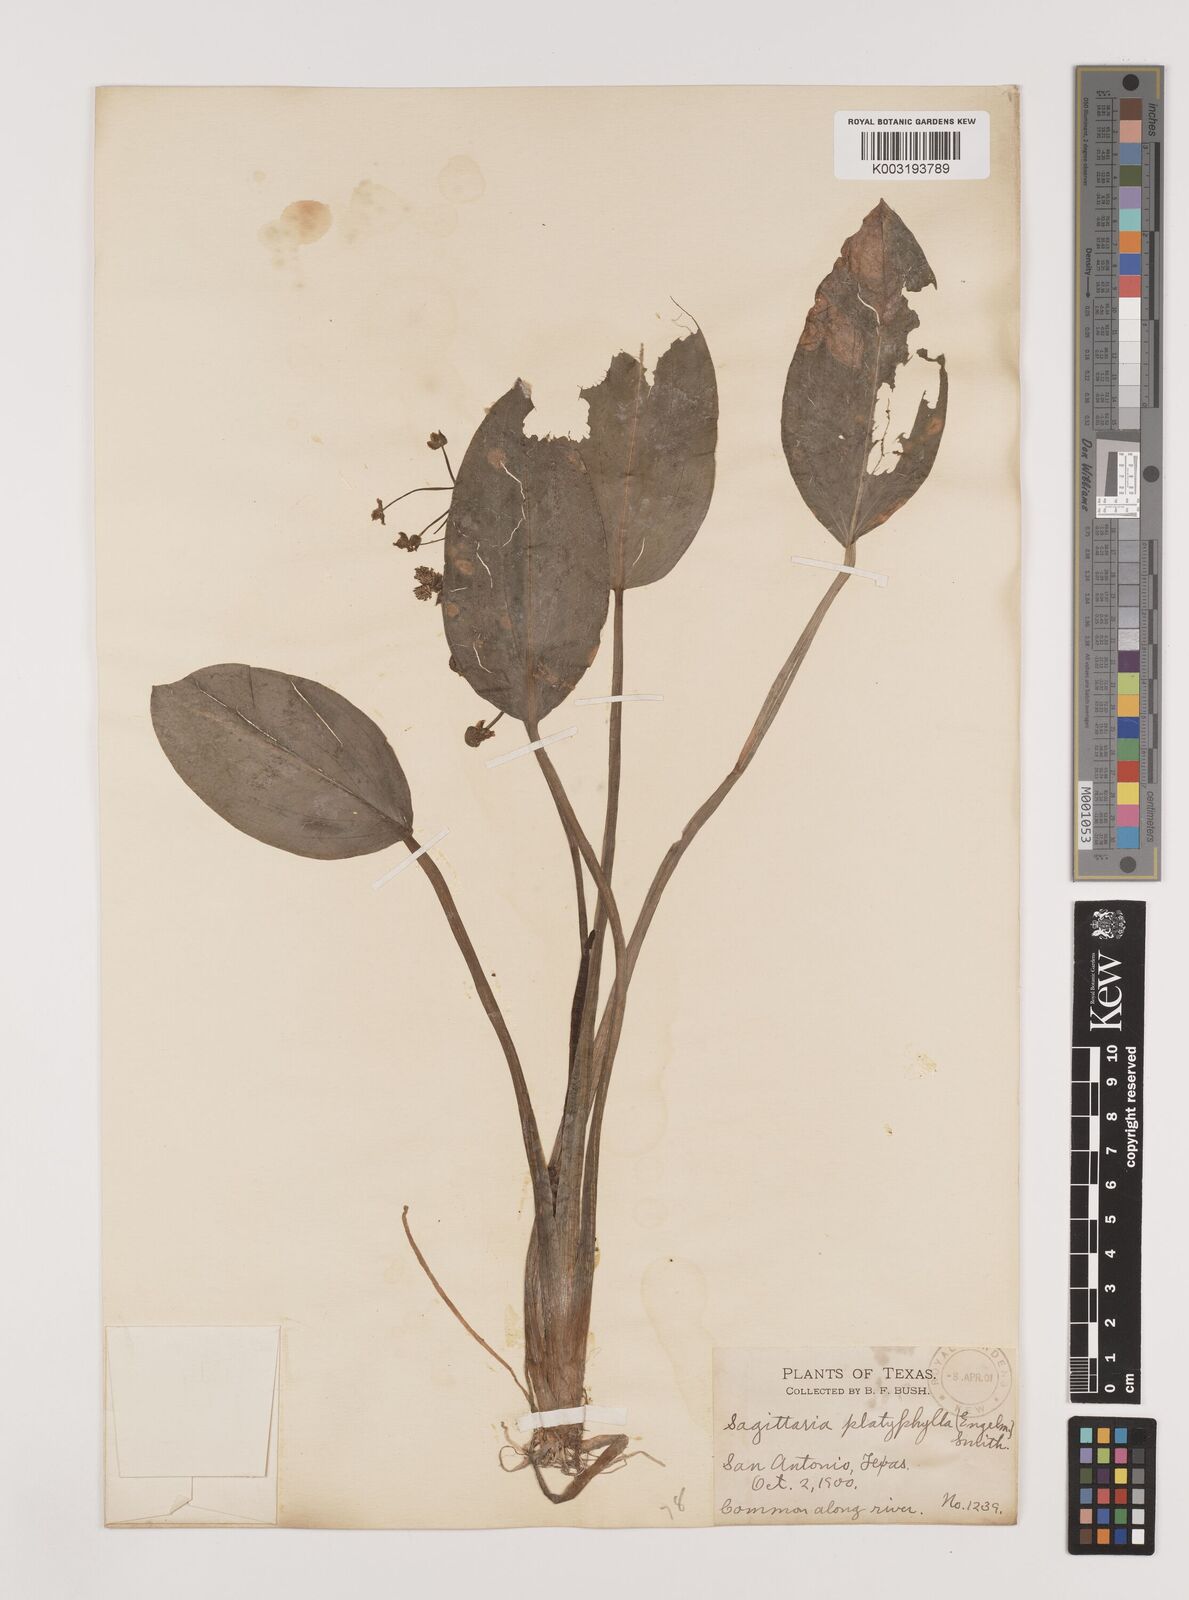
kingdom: Plantae
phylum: Tracheophyta
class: Liliopsida
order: Alismatales
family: Alismataceae
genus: Sagittaria
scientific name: Sagittaria graminea
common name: Grass-leaved arrowhead
